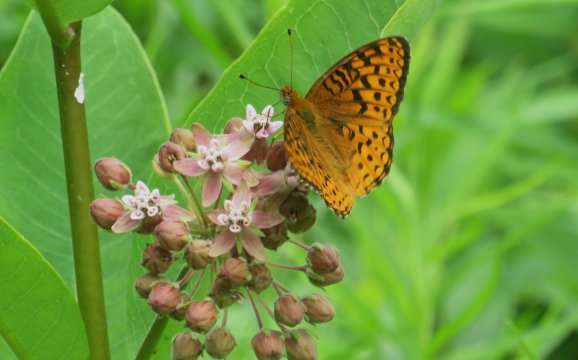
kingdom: Animalia
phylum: Arthropoda
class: Insecta
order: Lepidoptera
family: Nymphalidae
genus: Speyeria
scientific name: Speyeria atlantis
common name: Atlantis Fritillary
